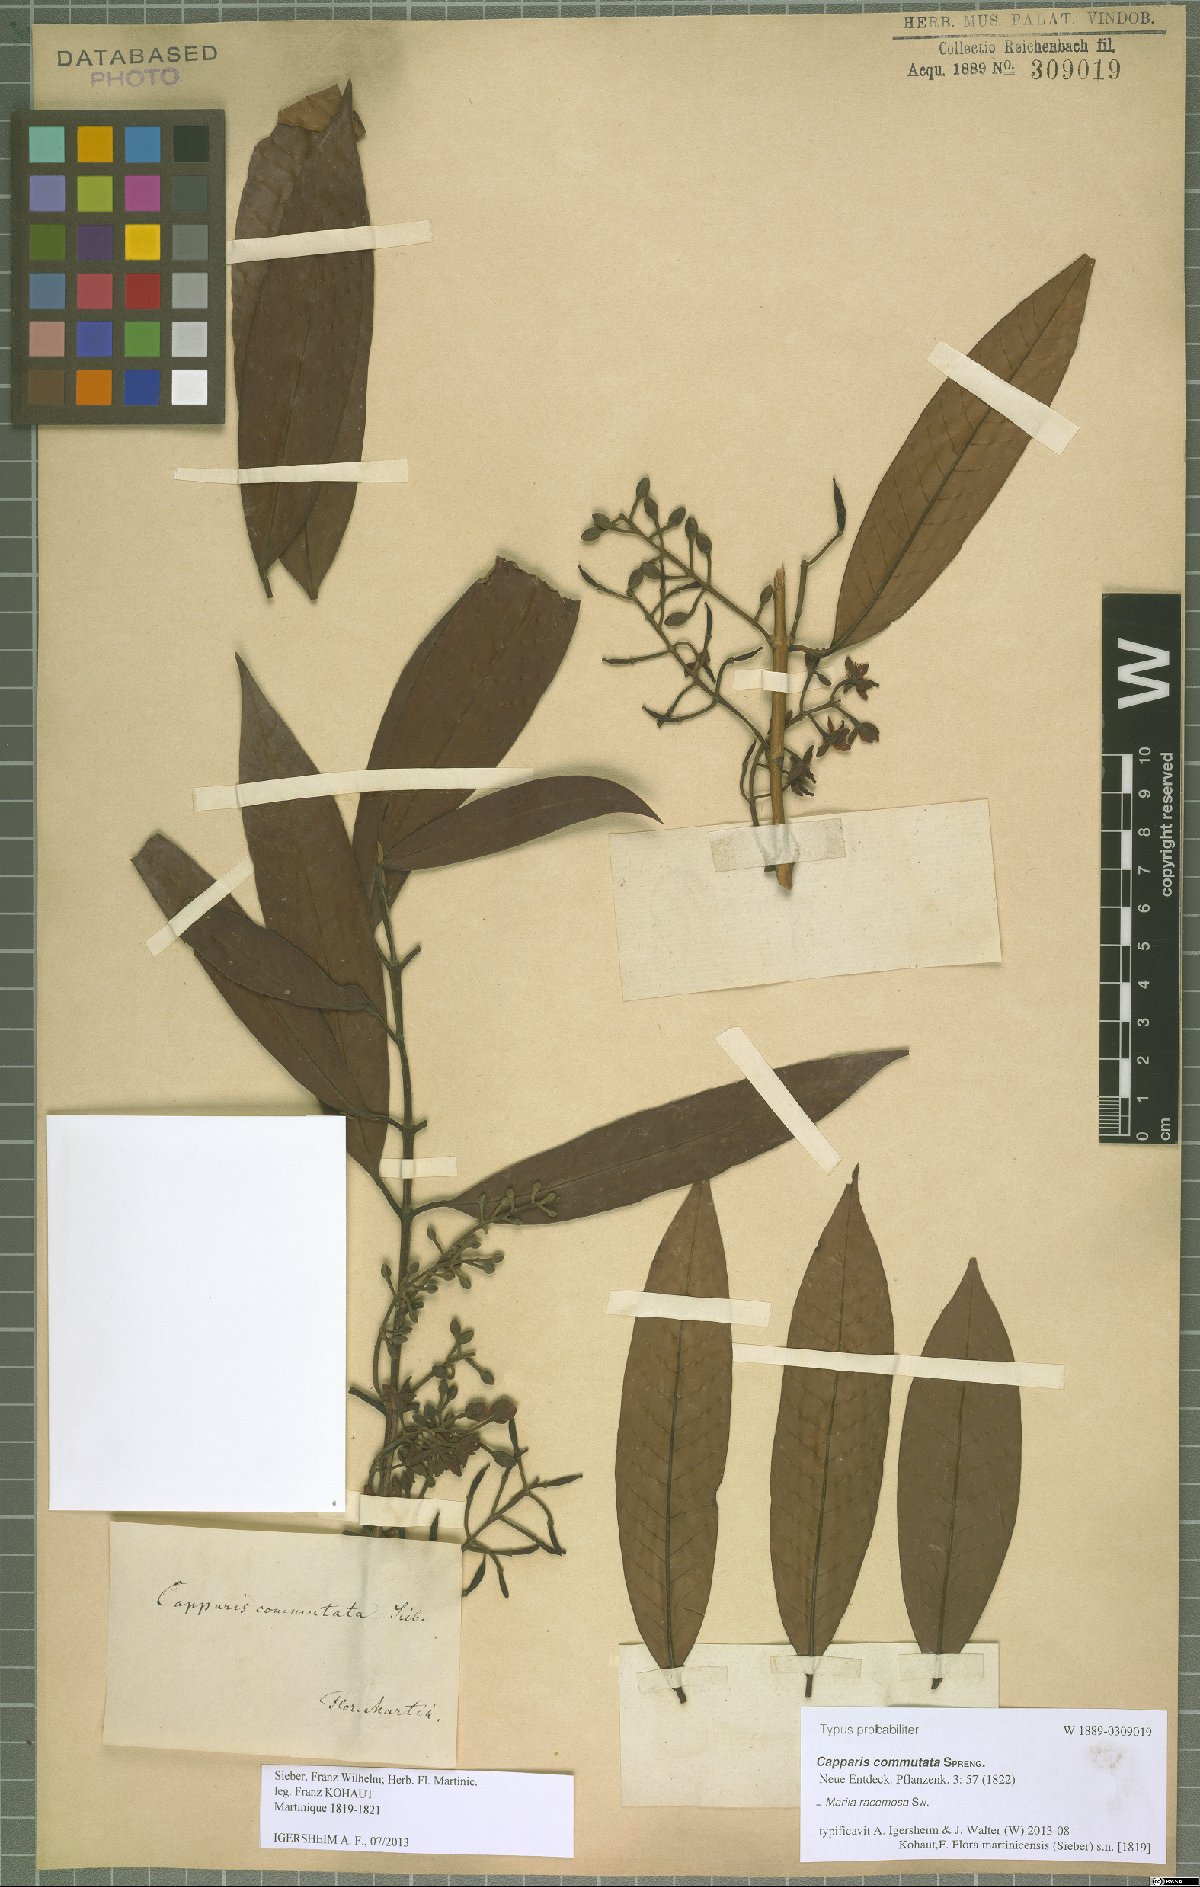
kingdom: Plantae
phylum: Tracheophyta
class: Magnoliopsida
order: Malpighiales
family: Calophyllaceae
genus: Marila
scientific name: Marila racemosa
